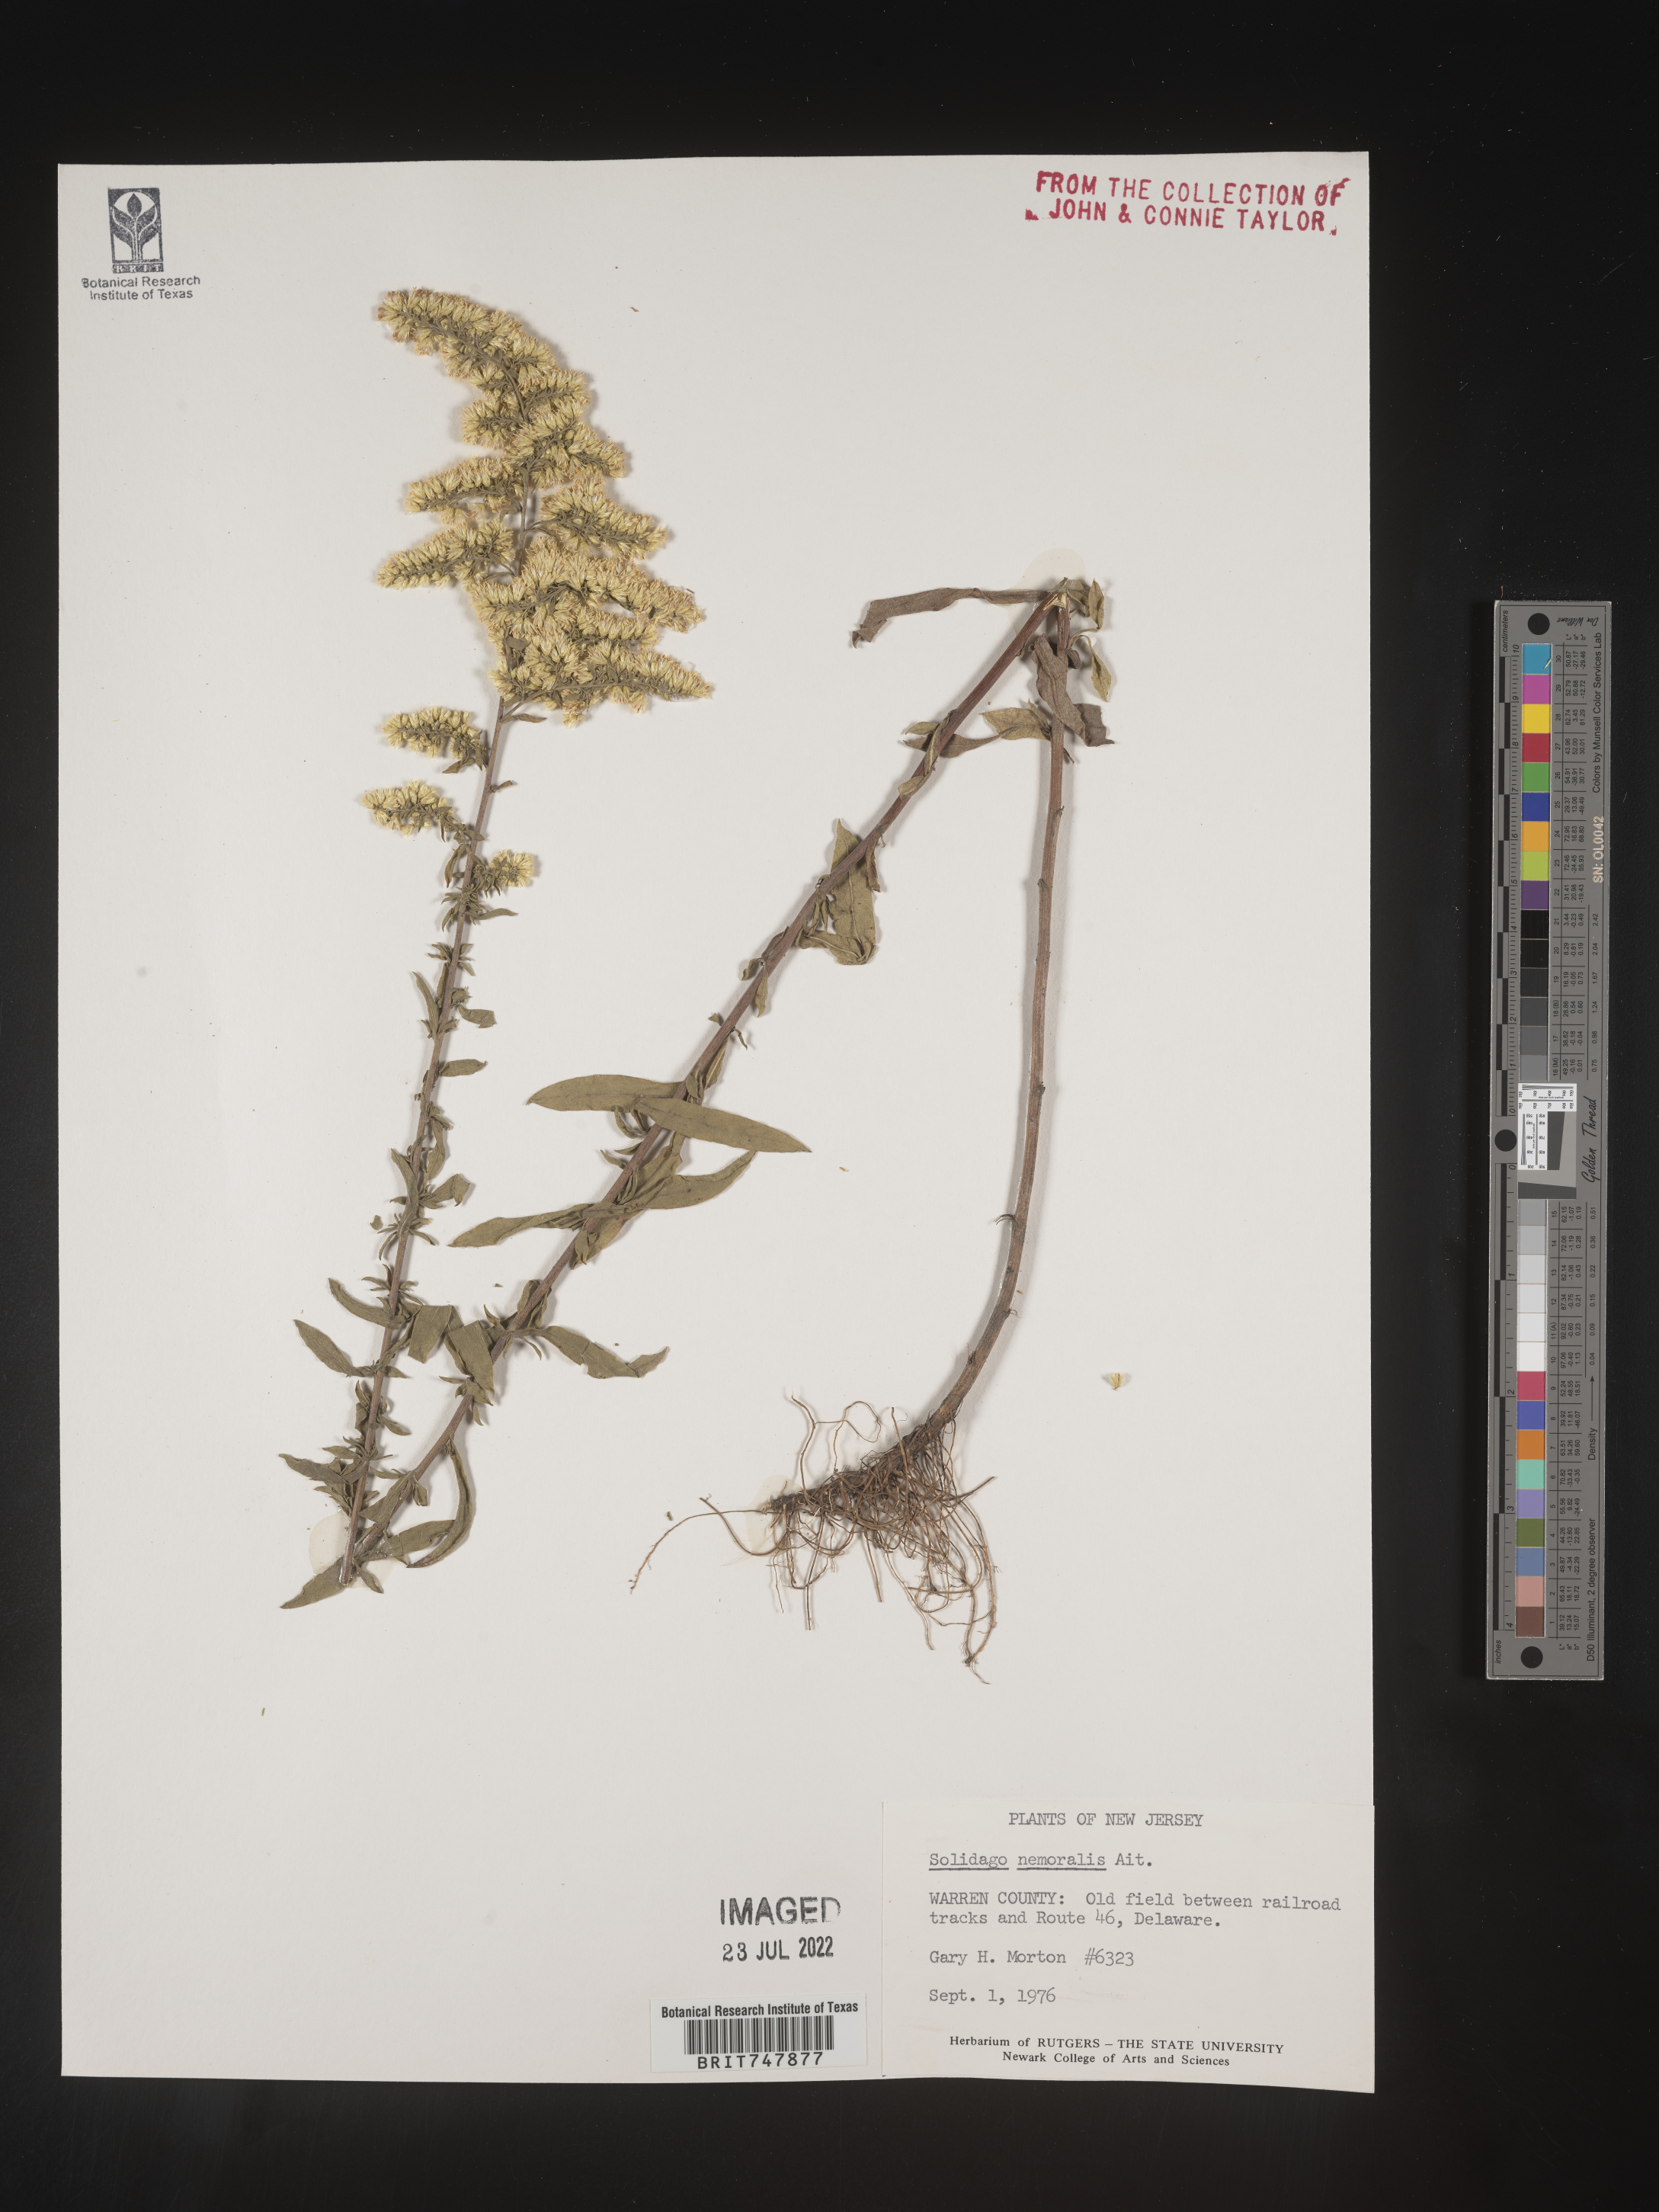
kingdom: Plantae
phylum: Tracheophyta
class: Magnoliopsida
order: Asterales
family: Asteraceae
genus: Solidago
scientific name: Solidago nemoralis
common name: Grey goldenrod
